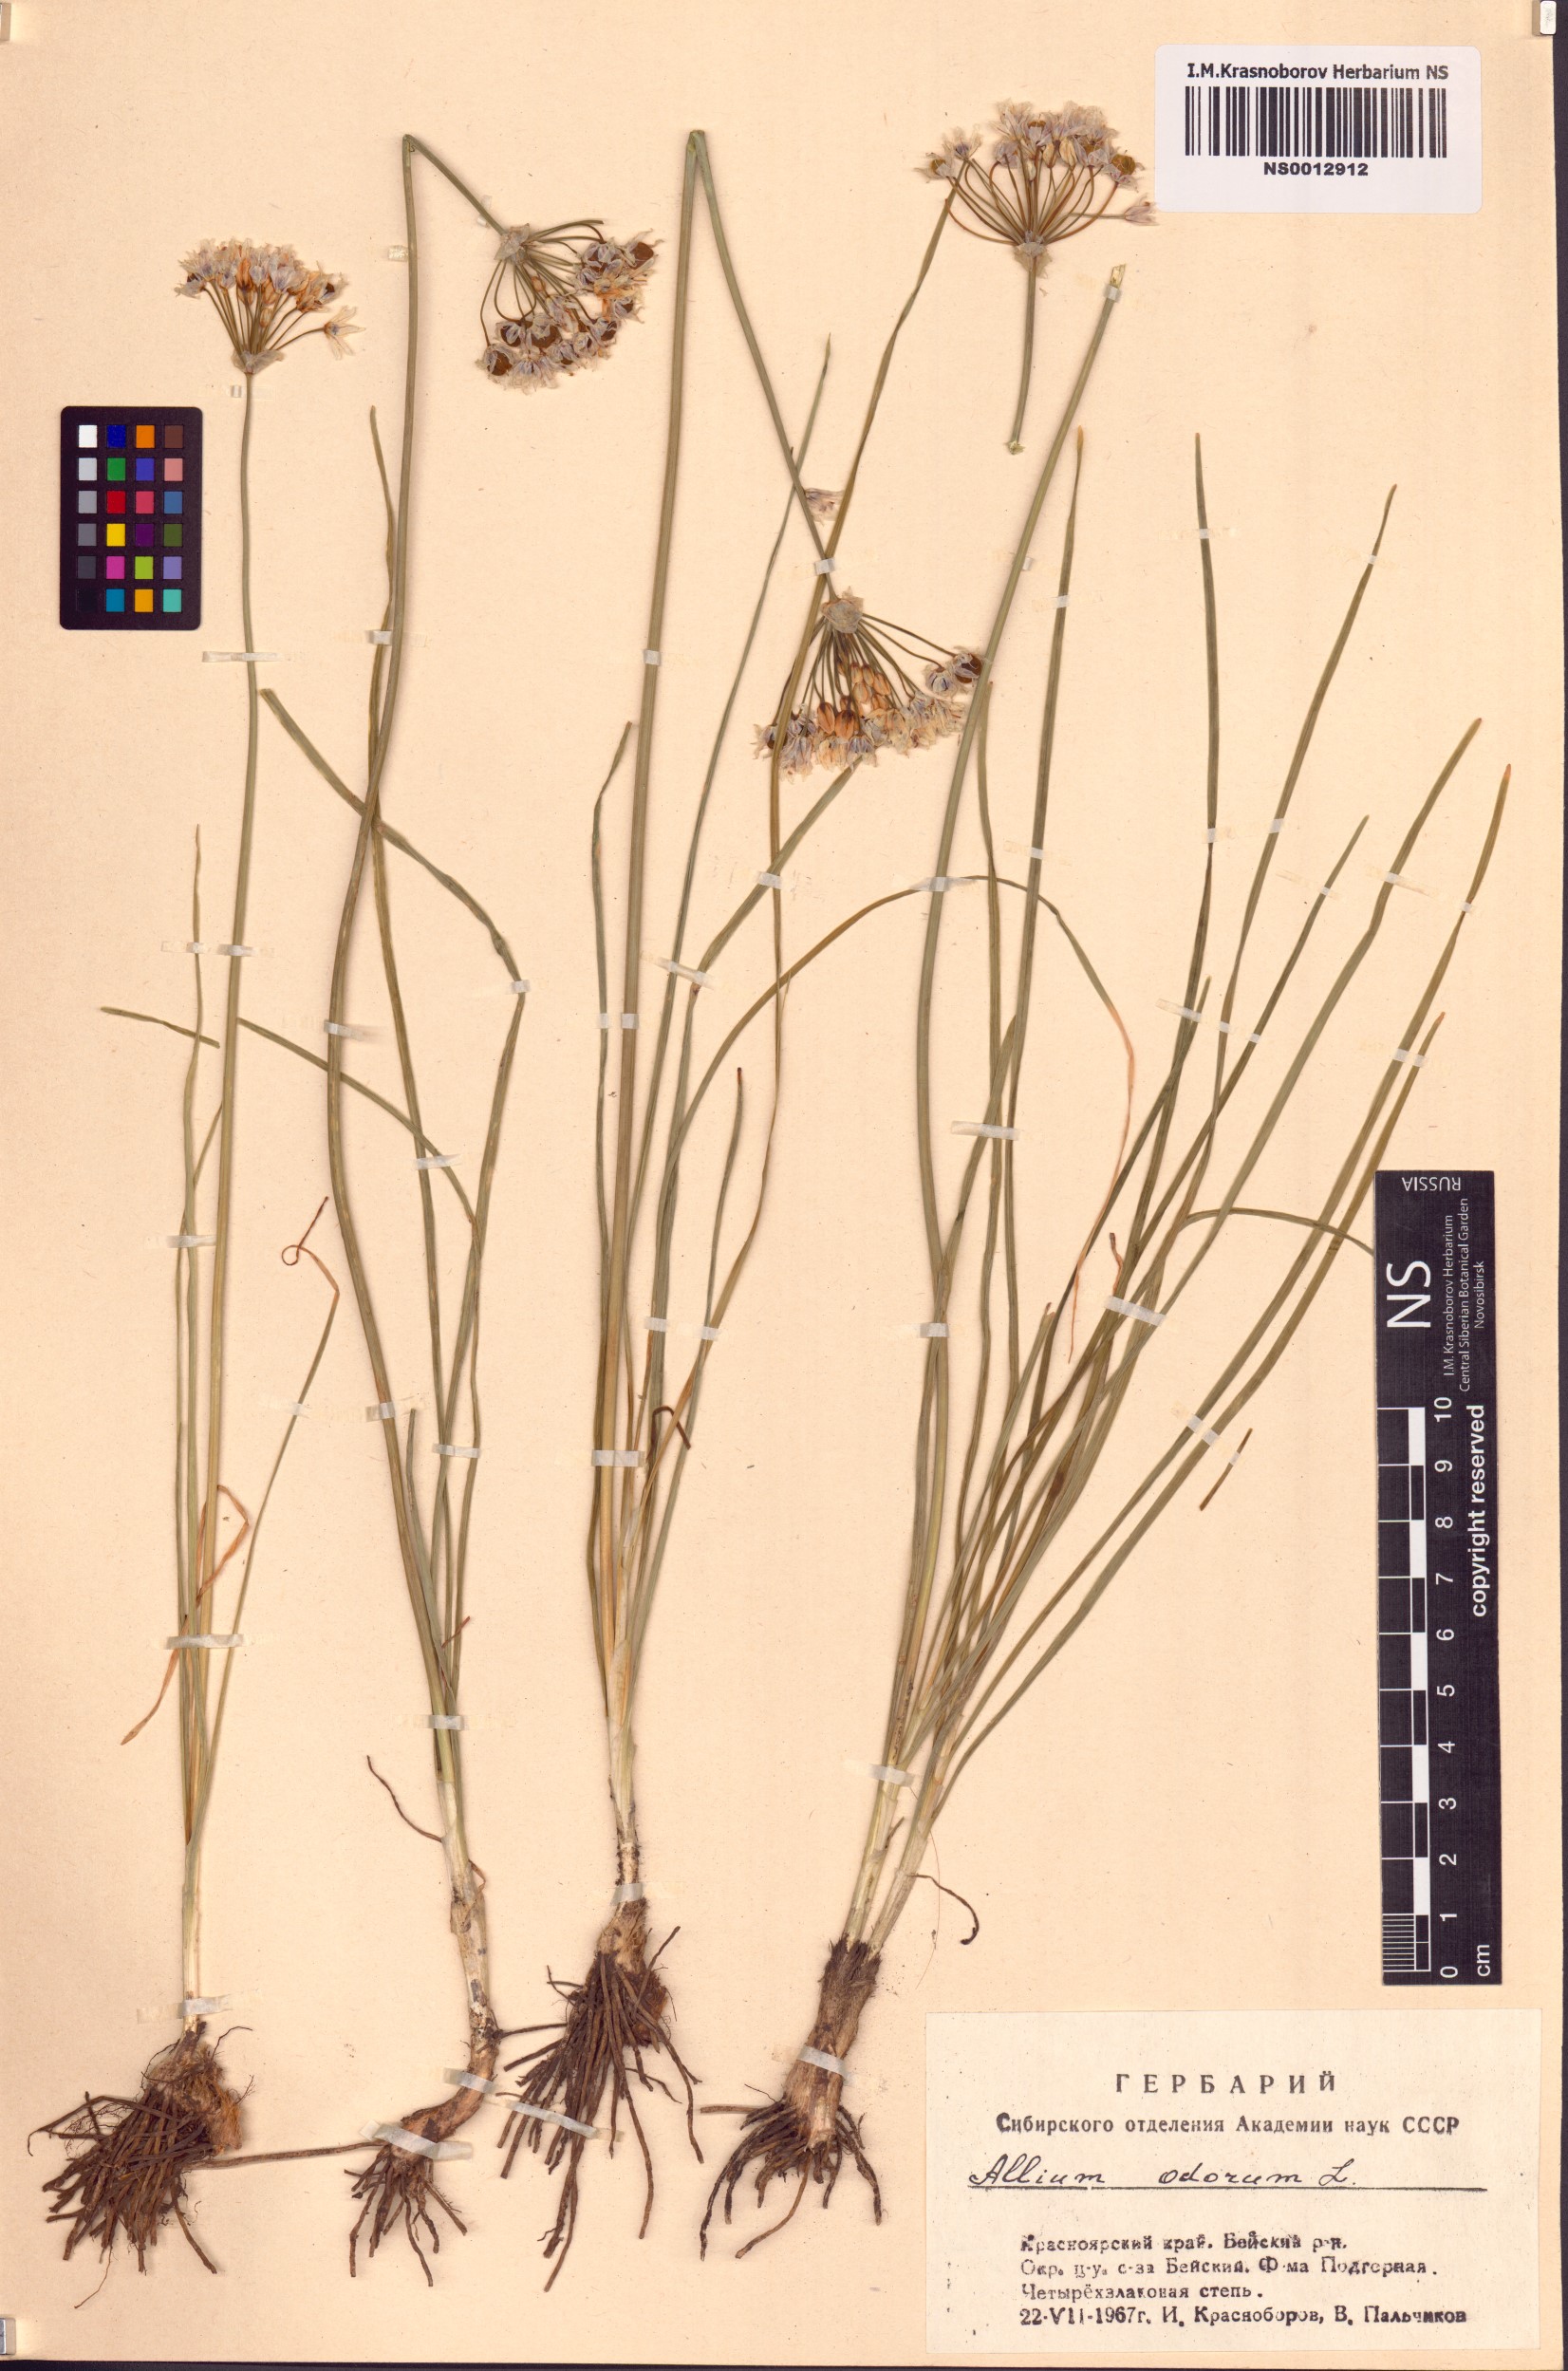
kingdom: Plantae
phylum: Tracheophyta
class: Liliopsida
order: Asparagales
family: Amaryllidaceae
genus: Allium
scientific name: Allium ramosum
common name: Fragrant garlic
